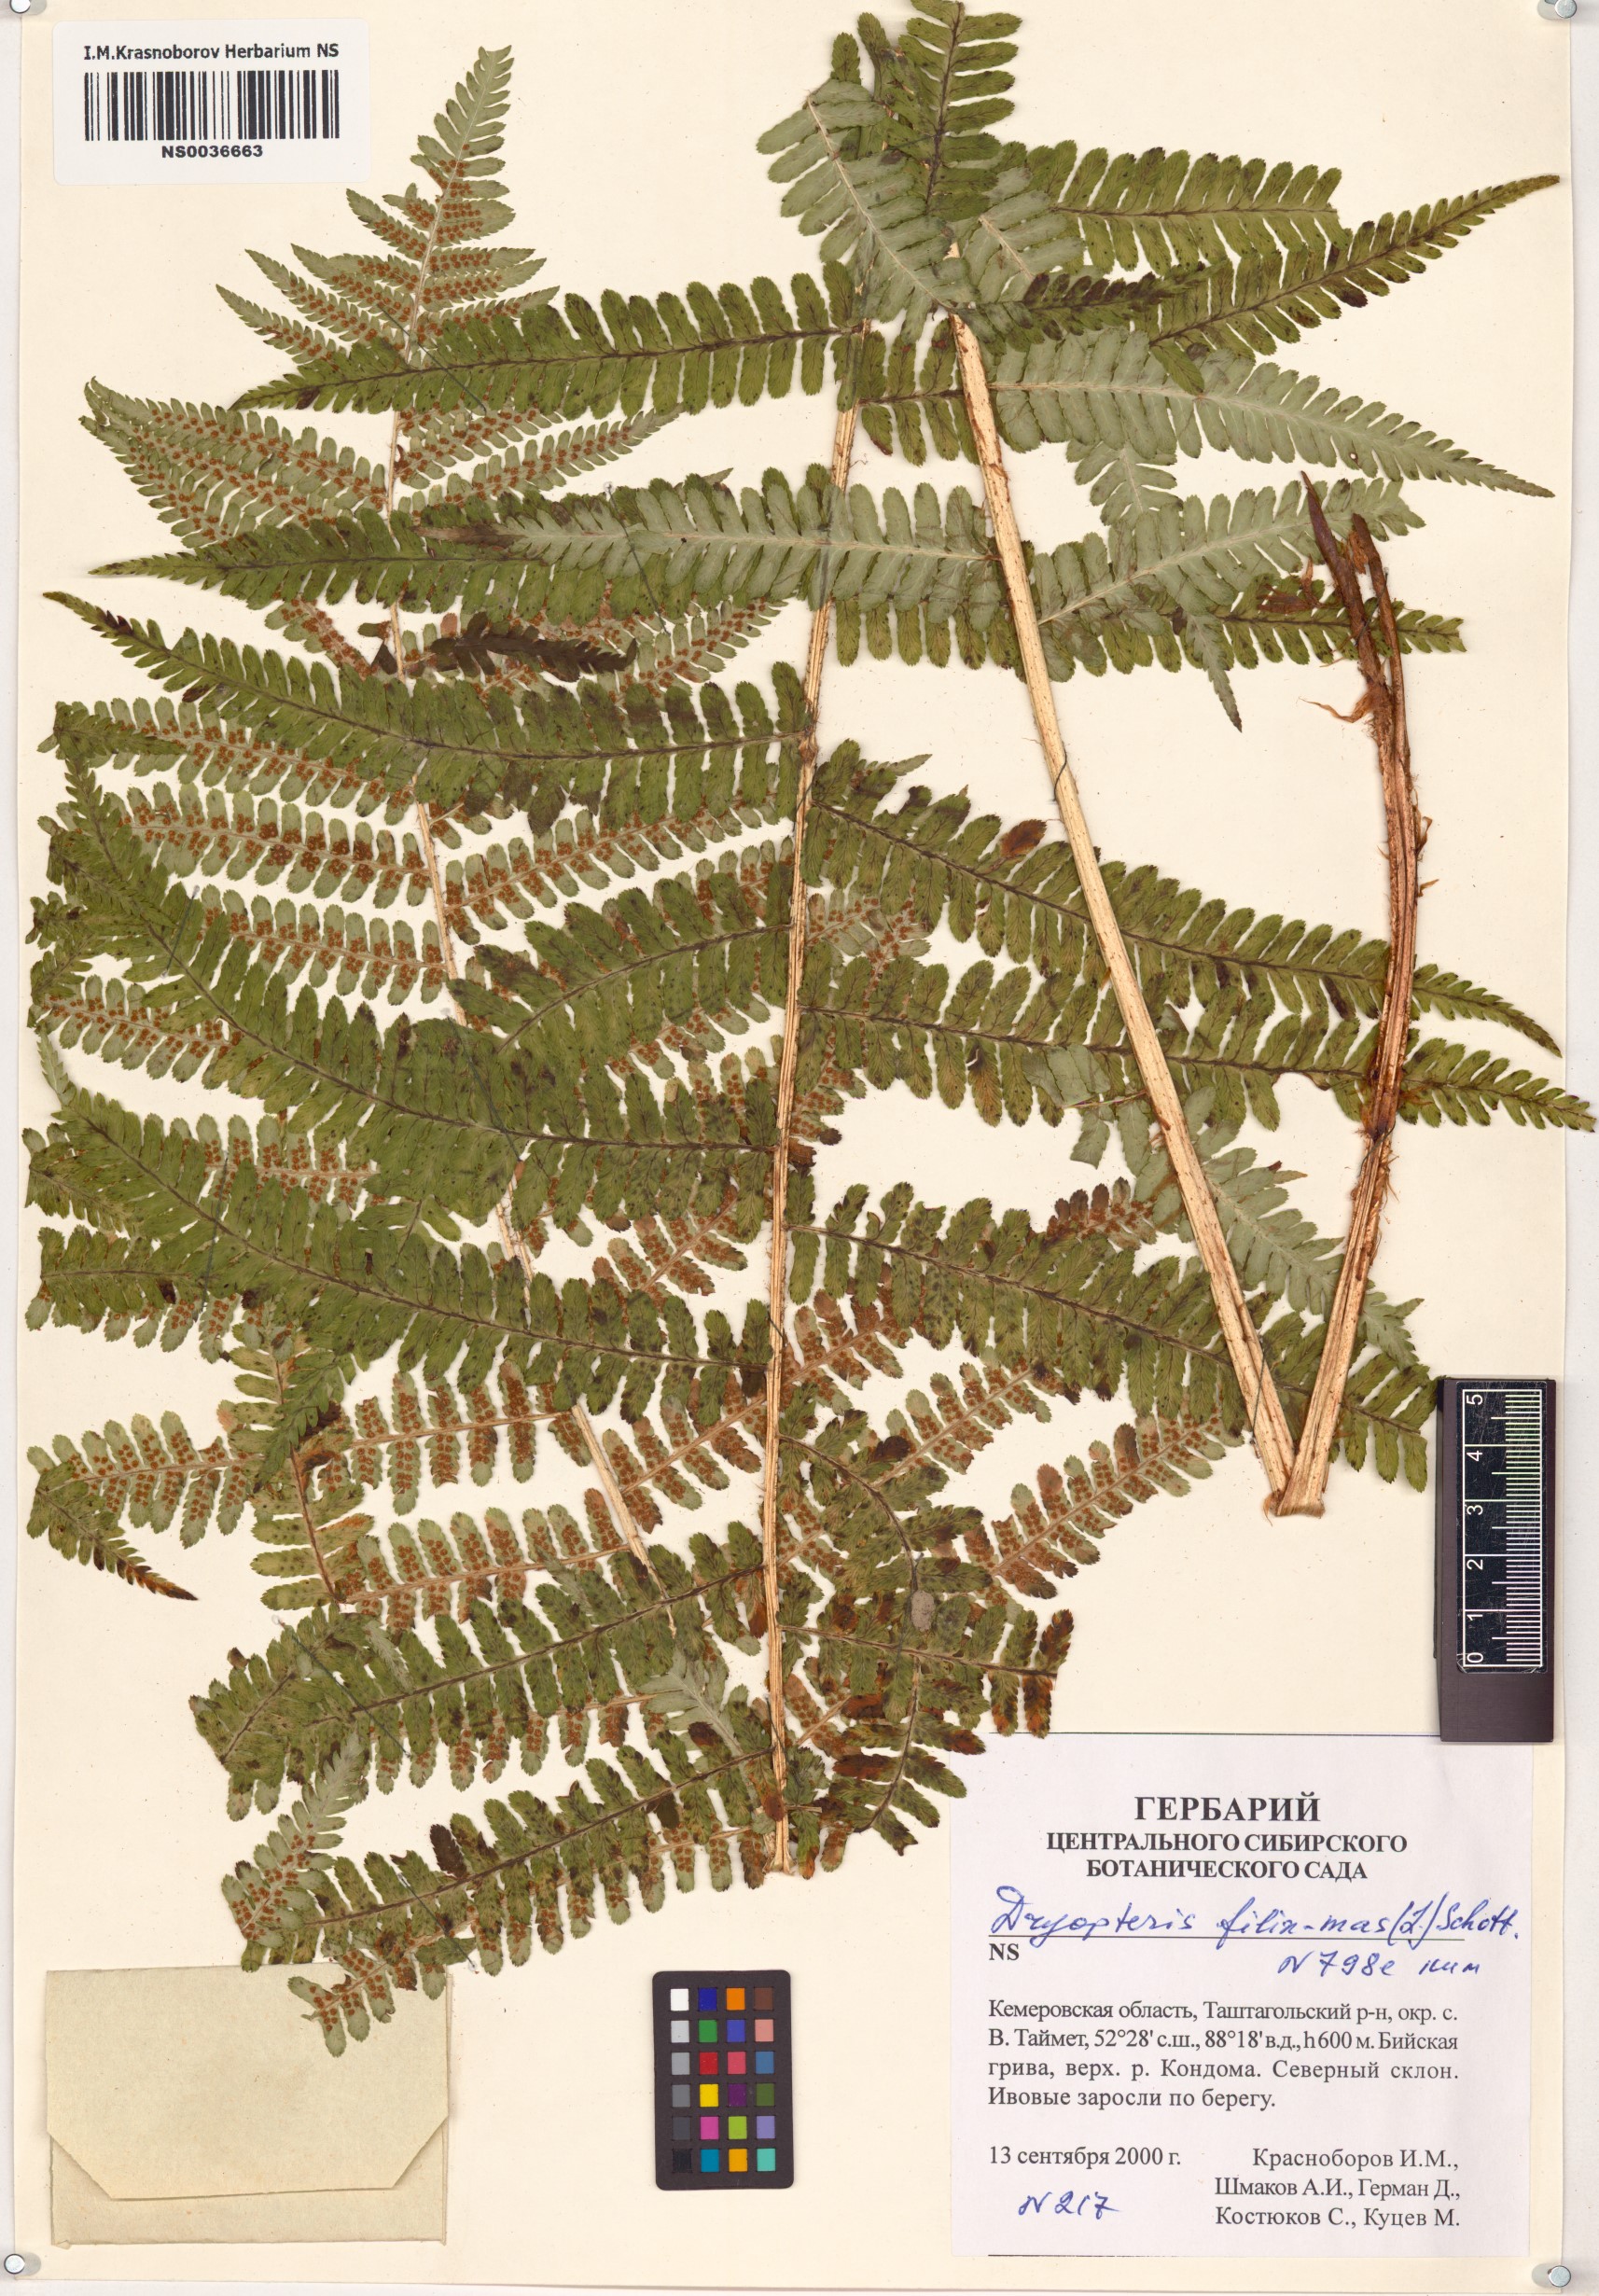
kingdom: Plantae
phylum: Tracheophyta
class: Polypodiopsida
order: Polypodiales
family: Dryopteridaceae
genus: Dryopteris
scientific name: Dryopteris filix-mas
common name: Male fern
